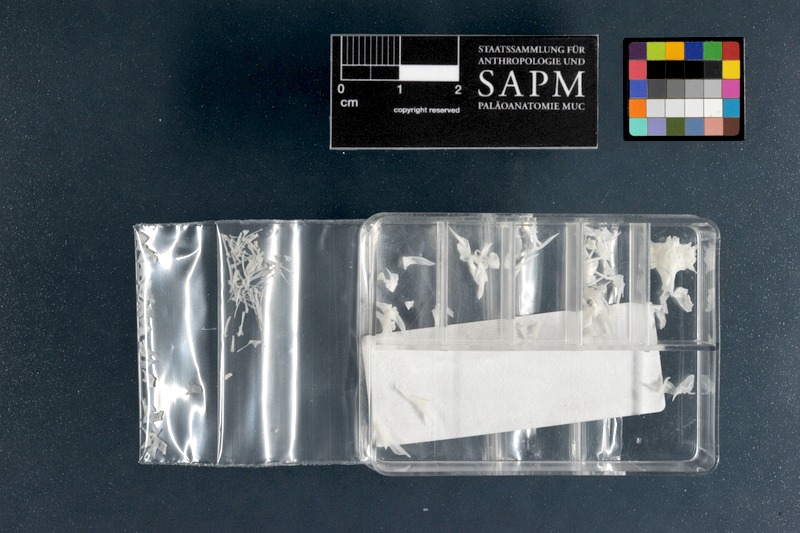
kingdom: Animalia
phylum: Chordata
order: Perciformes
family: Callionymidae
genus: Synchiropus
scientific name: Synchiropus picturatus
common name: Green spot mandarin
